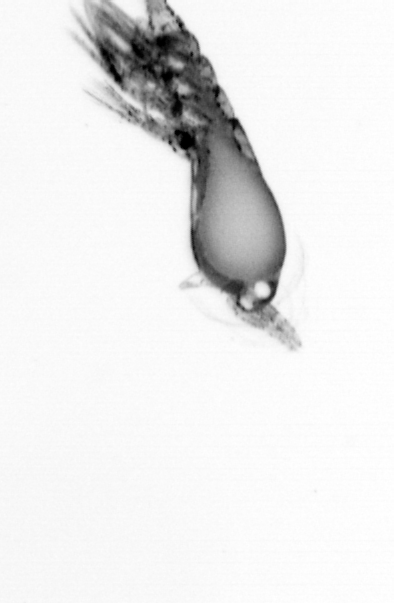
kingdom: Animalia
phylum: Arthropoda
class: Copepoda
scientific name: Copepoda
